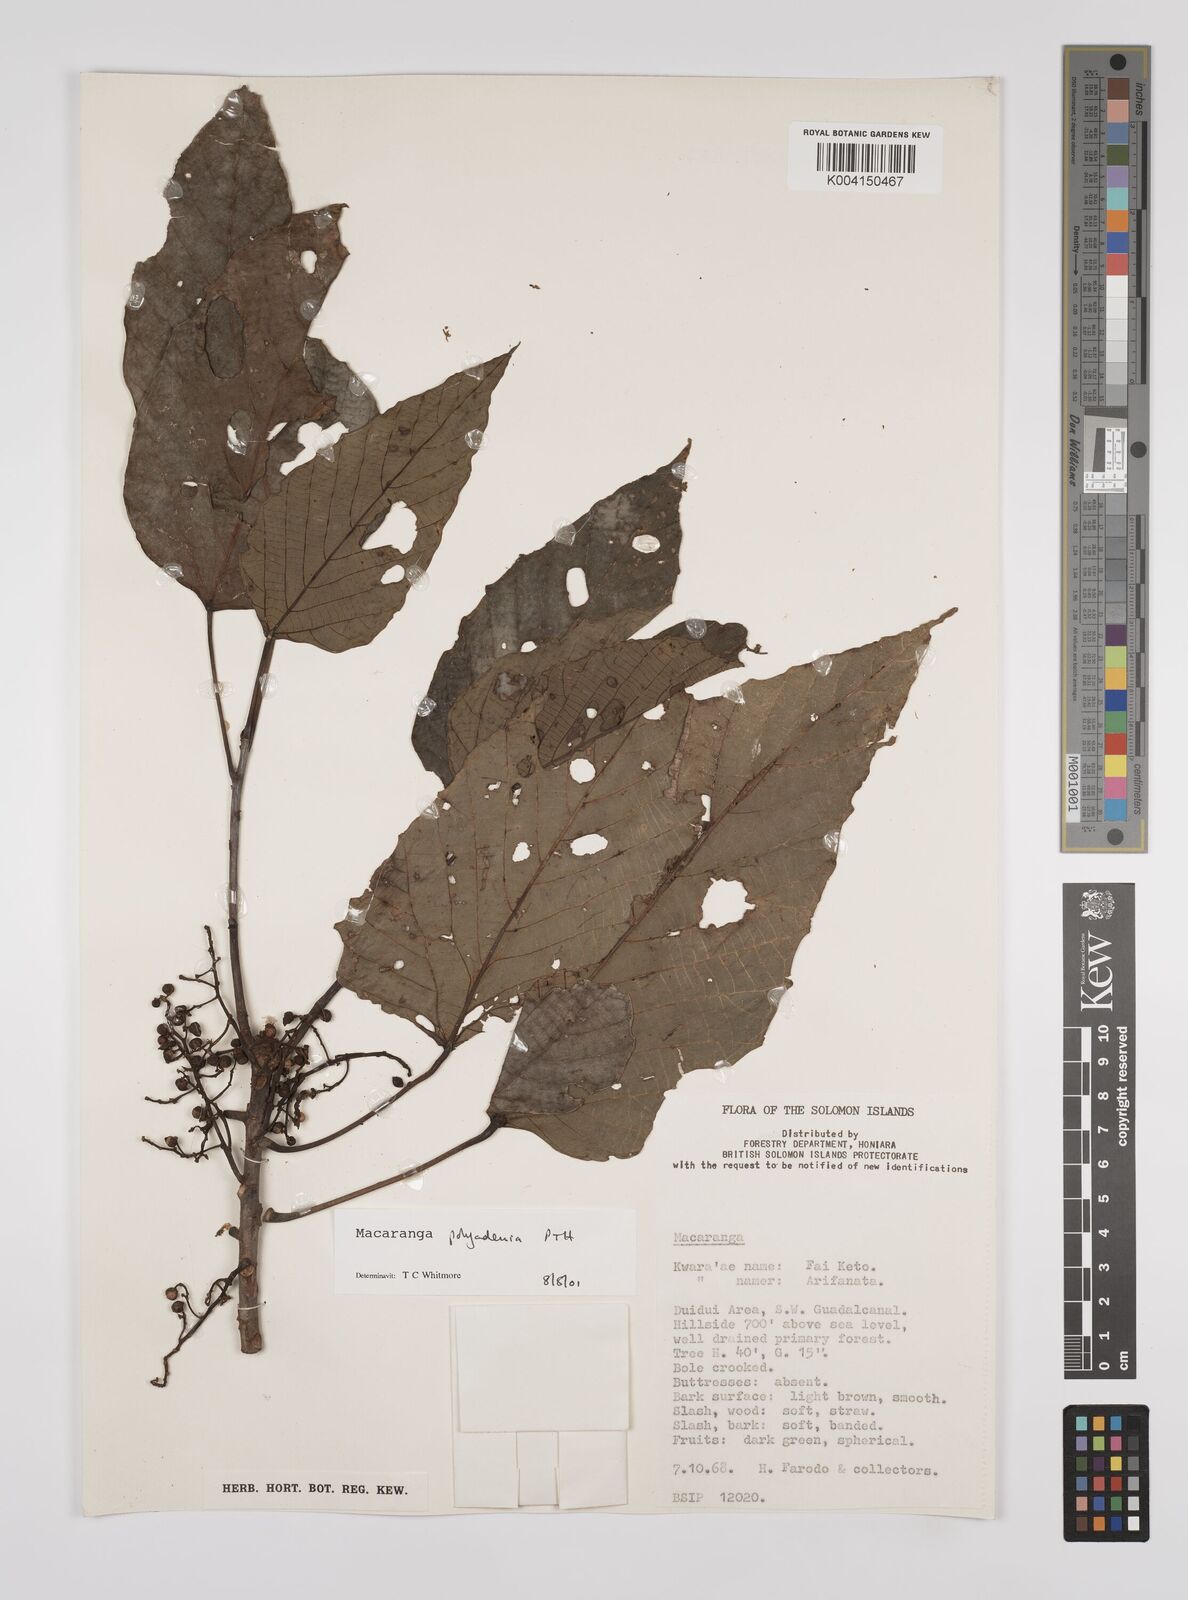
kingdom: Plantae
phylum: Tracheophyta
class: Magnoliopsida
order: Malpighiales
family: Euphorbiaceae
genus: Macaranga
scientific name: Macaranga polyadenia
